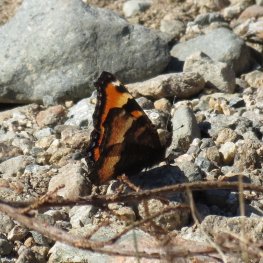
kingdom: Animalia
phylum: Arthropoda
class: Insecta
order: Lepidoptera
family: Nymphalidae
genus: Aglais
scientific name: Aglais milberti
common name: Milbert's Tortoiseshell
